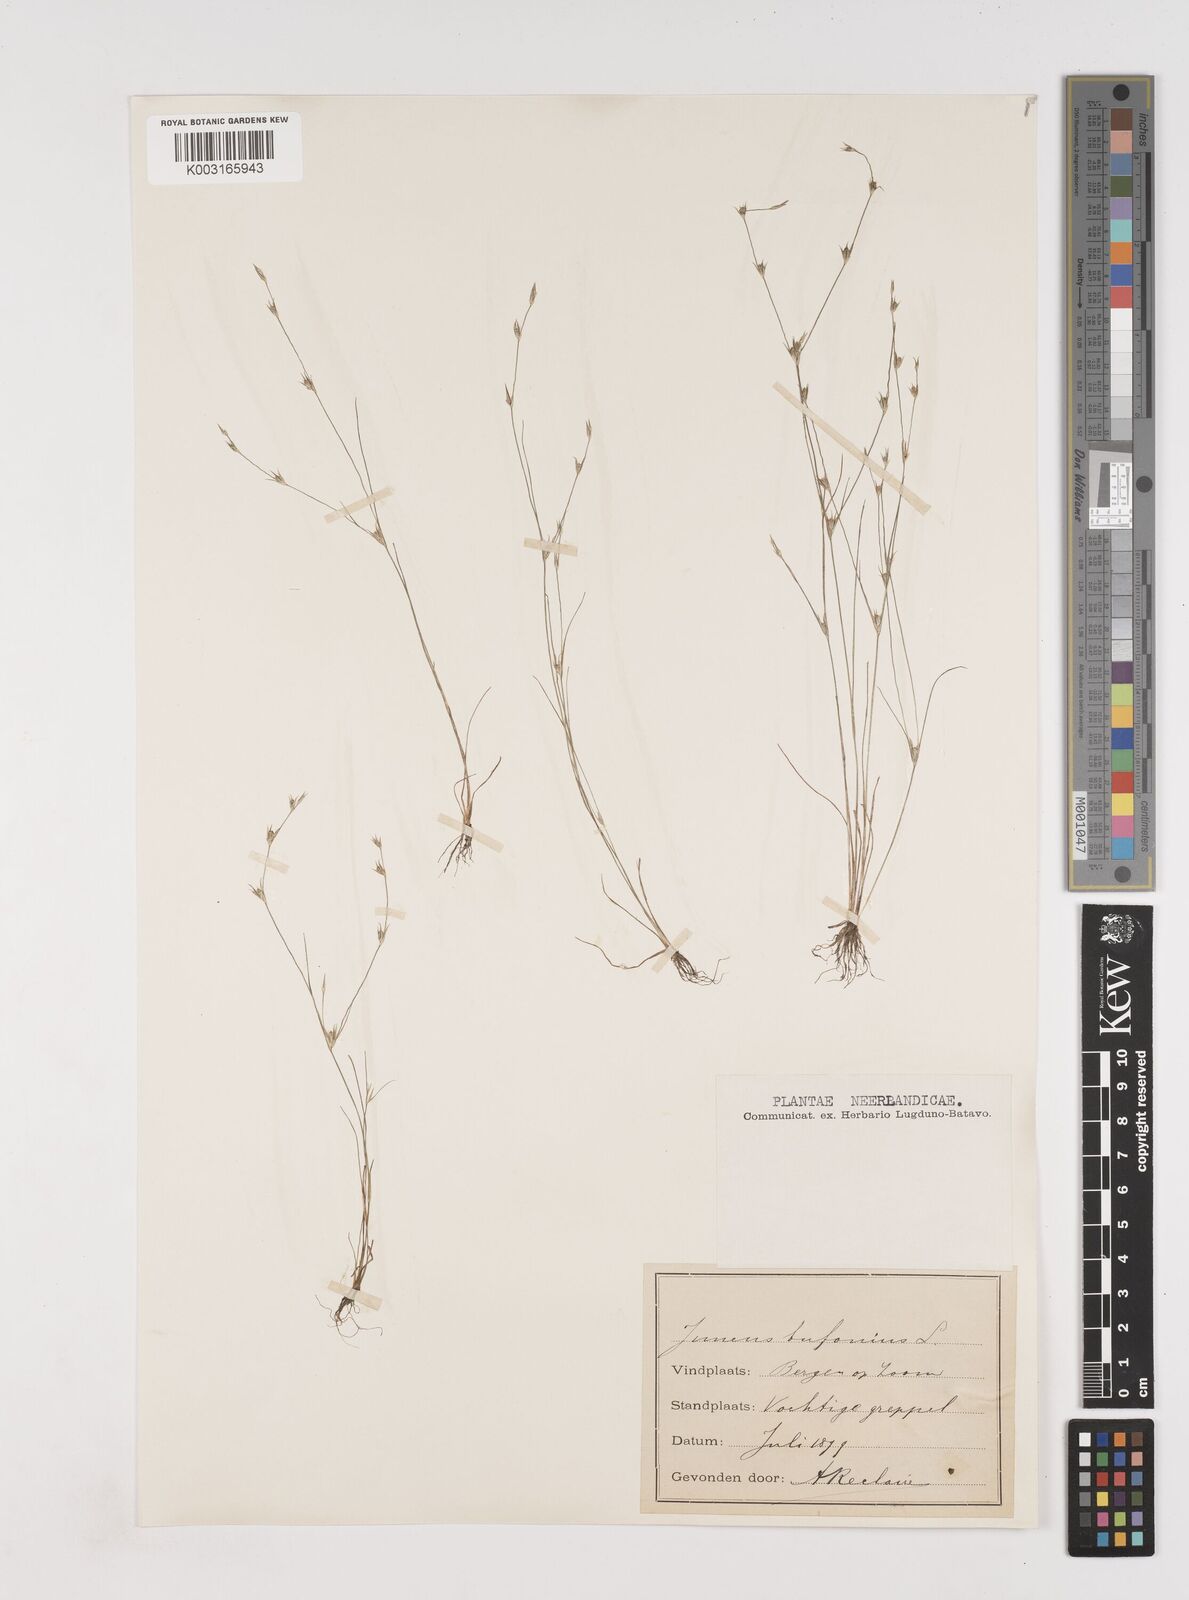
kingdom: Plantae
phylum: Tracheophyta
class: Liliopsida
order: Poales
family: Juncaceae
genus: Juncus
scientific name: Juncus bufonius
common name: Toad rush
